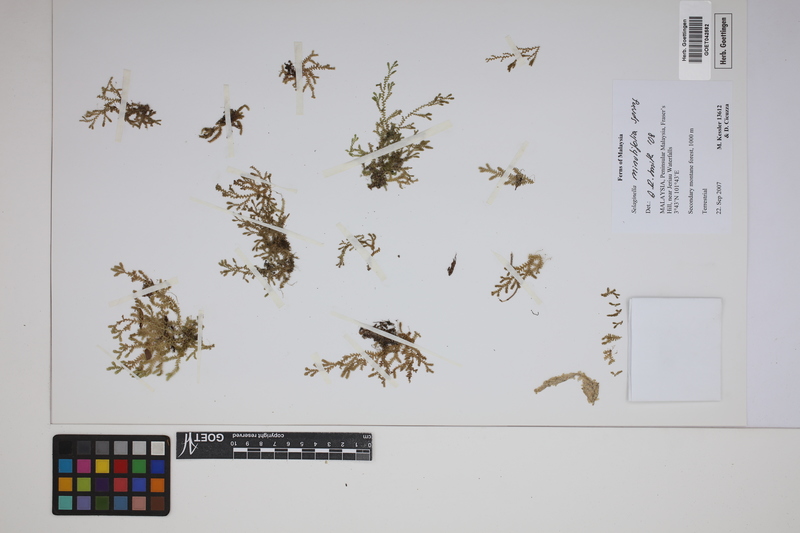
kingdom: Plantae
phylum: Tracheophyta
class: Lycopodiopsida
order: Selaginellales
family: Selaginellaceae
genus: Selaginella
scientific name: Selaginella minutifolia
